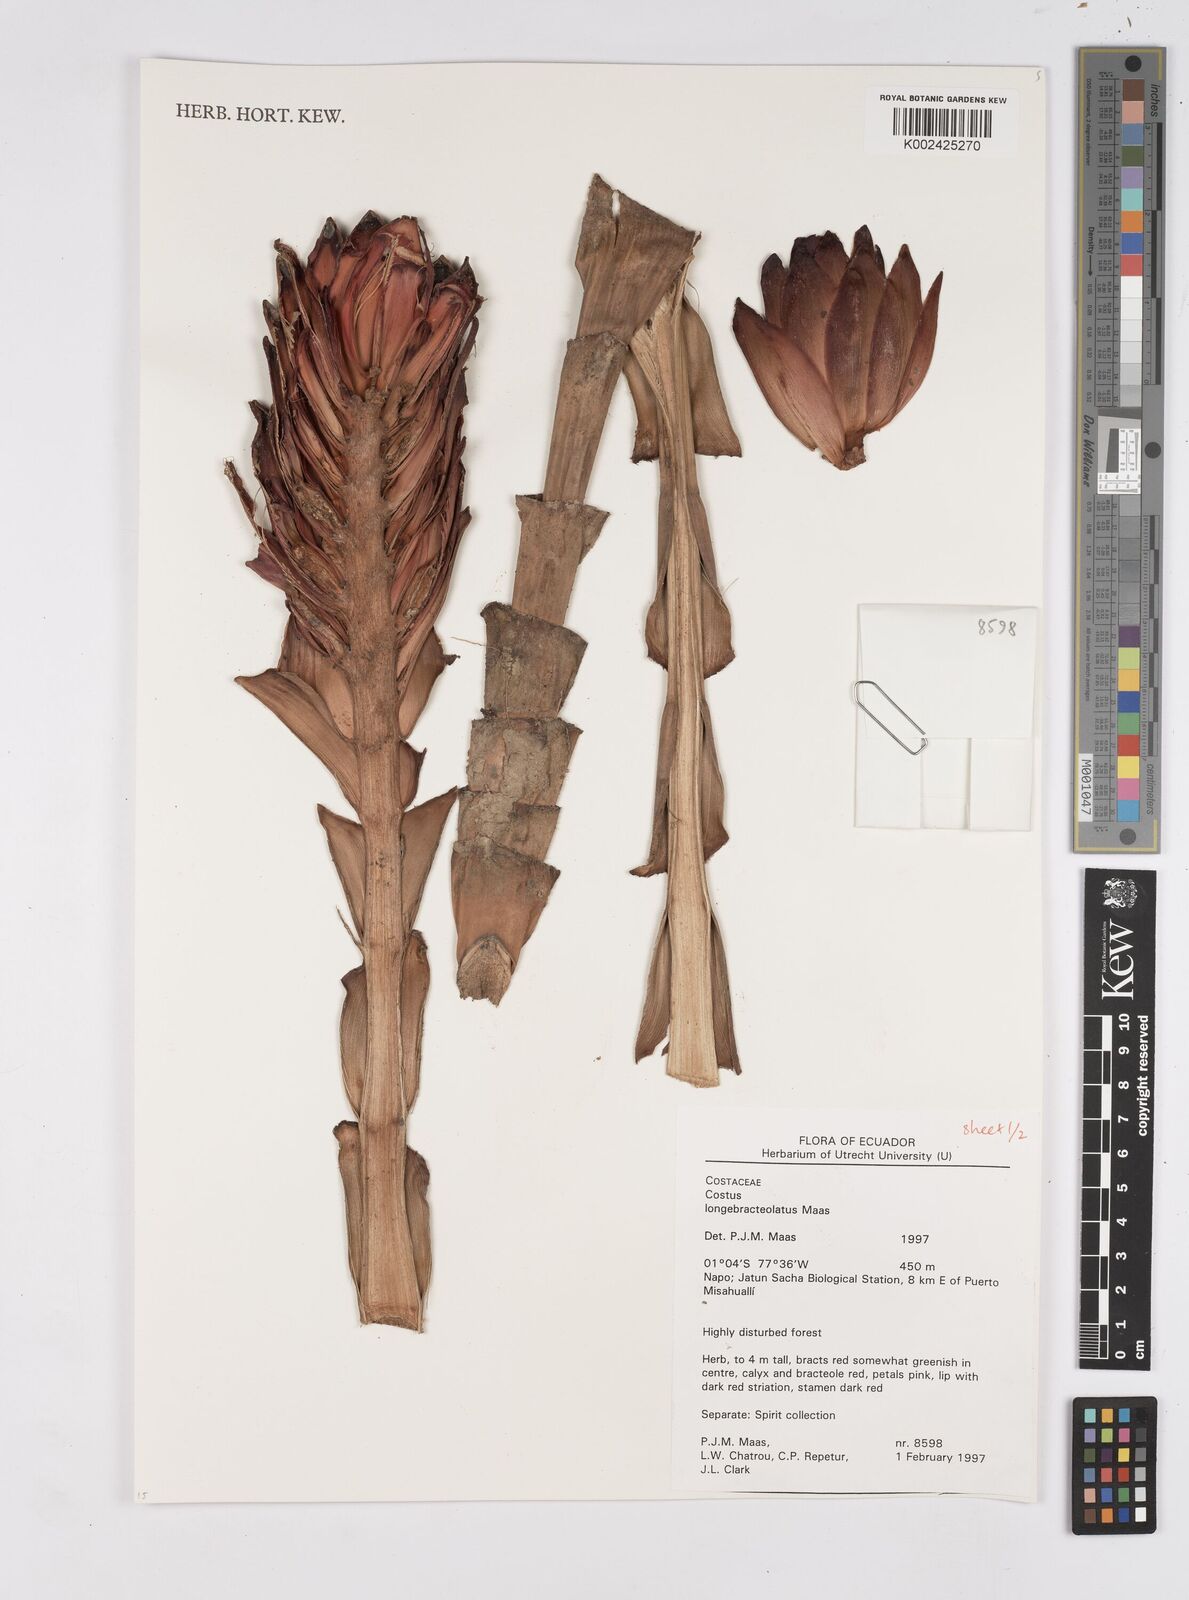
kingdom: Plantae
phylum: Tracheophyta
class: Liliopsida
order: Zingiberales
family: Costaceae
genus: Costus
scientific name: Costus longibracteolatus
